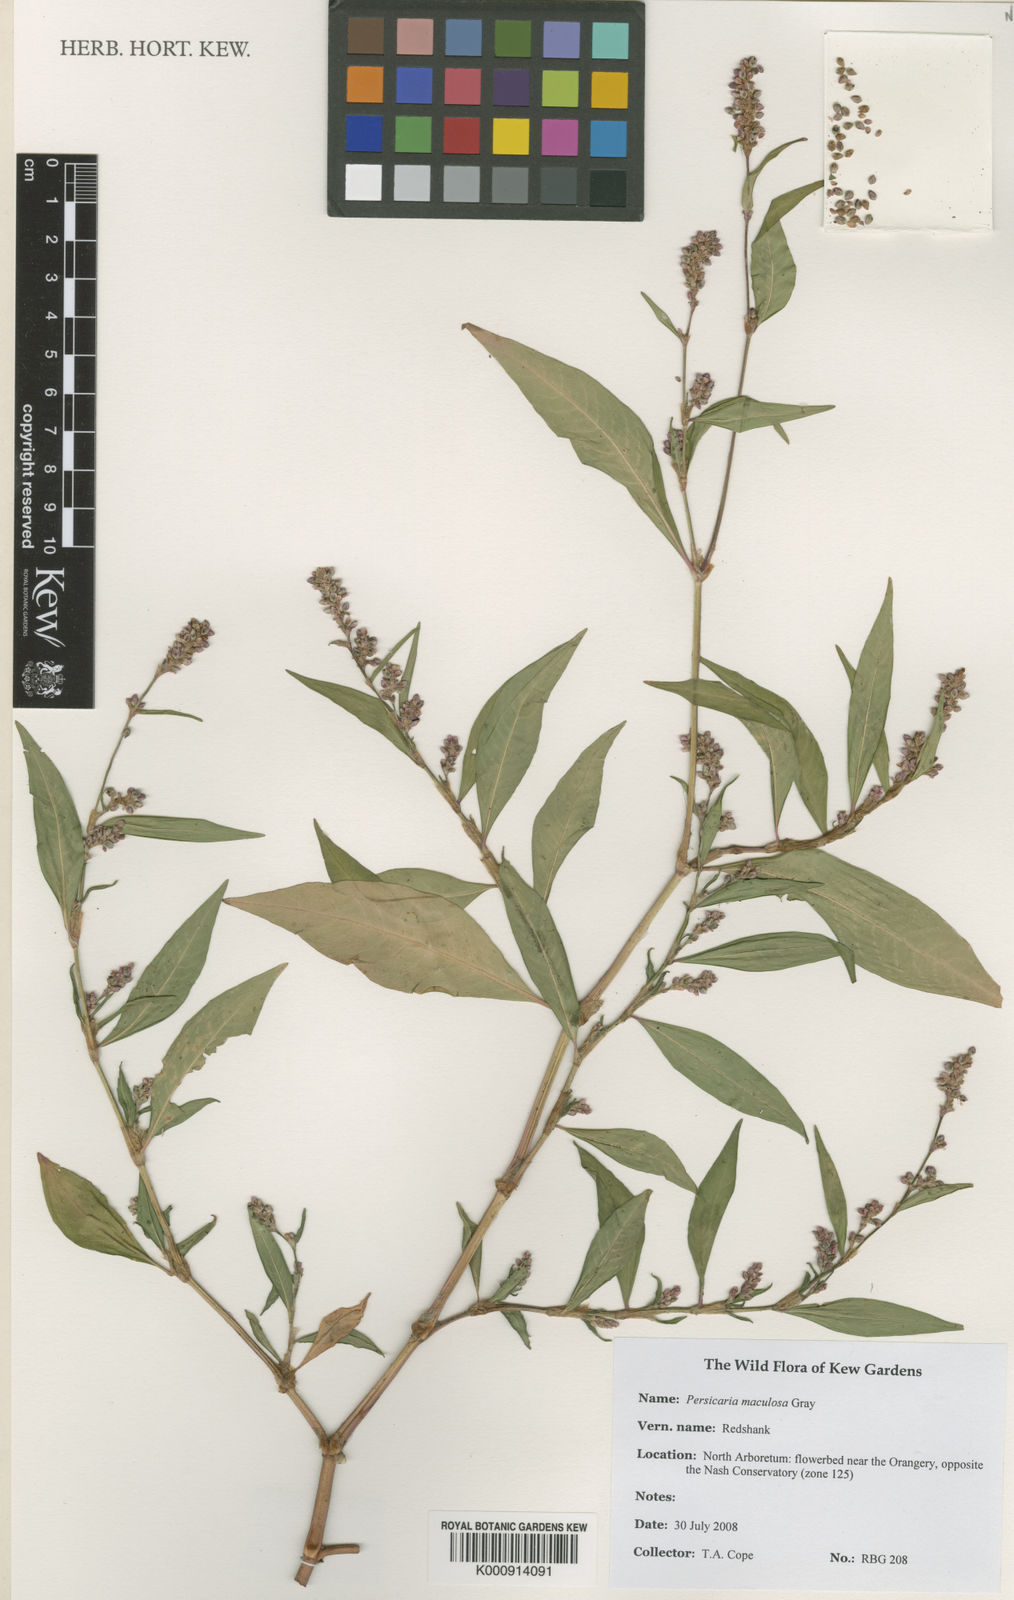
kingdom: Plantae
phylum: Tracheophyta
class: Magnoliopsida
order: Caryophyllales
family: Polygonaceae
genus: Persicaria
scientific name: Persicaria maculosa
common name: Redshank
